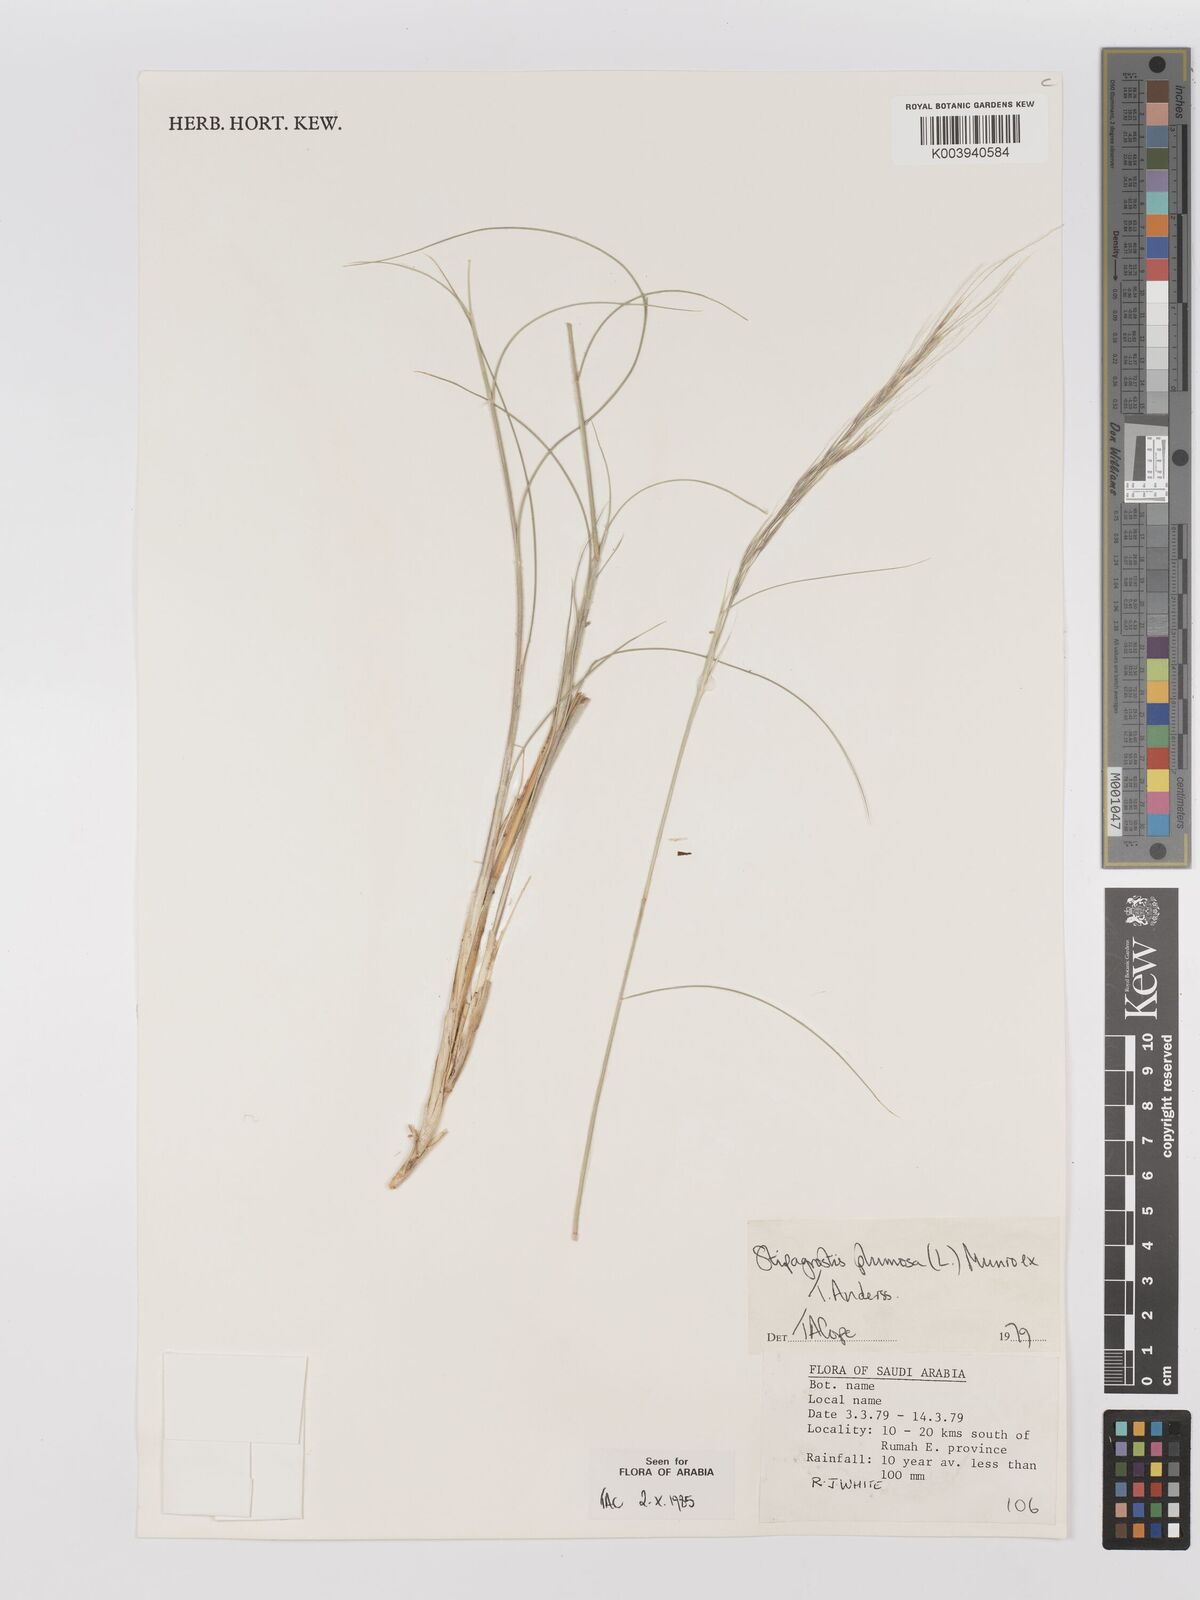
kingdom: Plantae
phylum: Tracheophyta
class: Liliopsida
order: Poales
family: Poaceae
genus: Stipagrostis
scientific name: Stipagrostis plumosa
